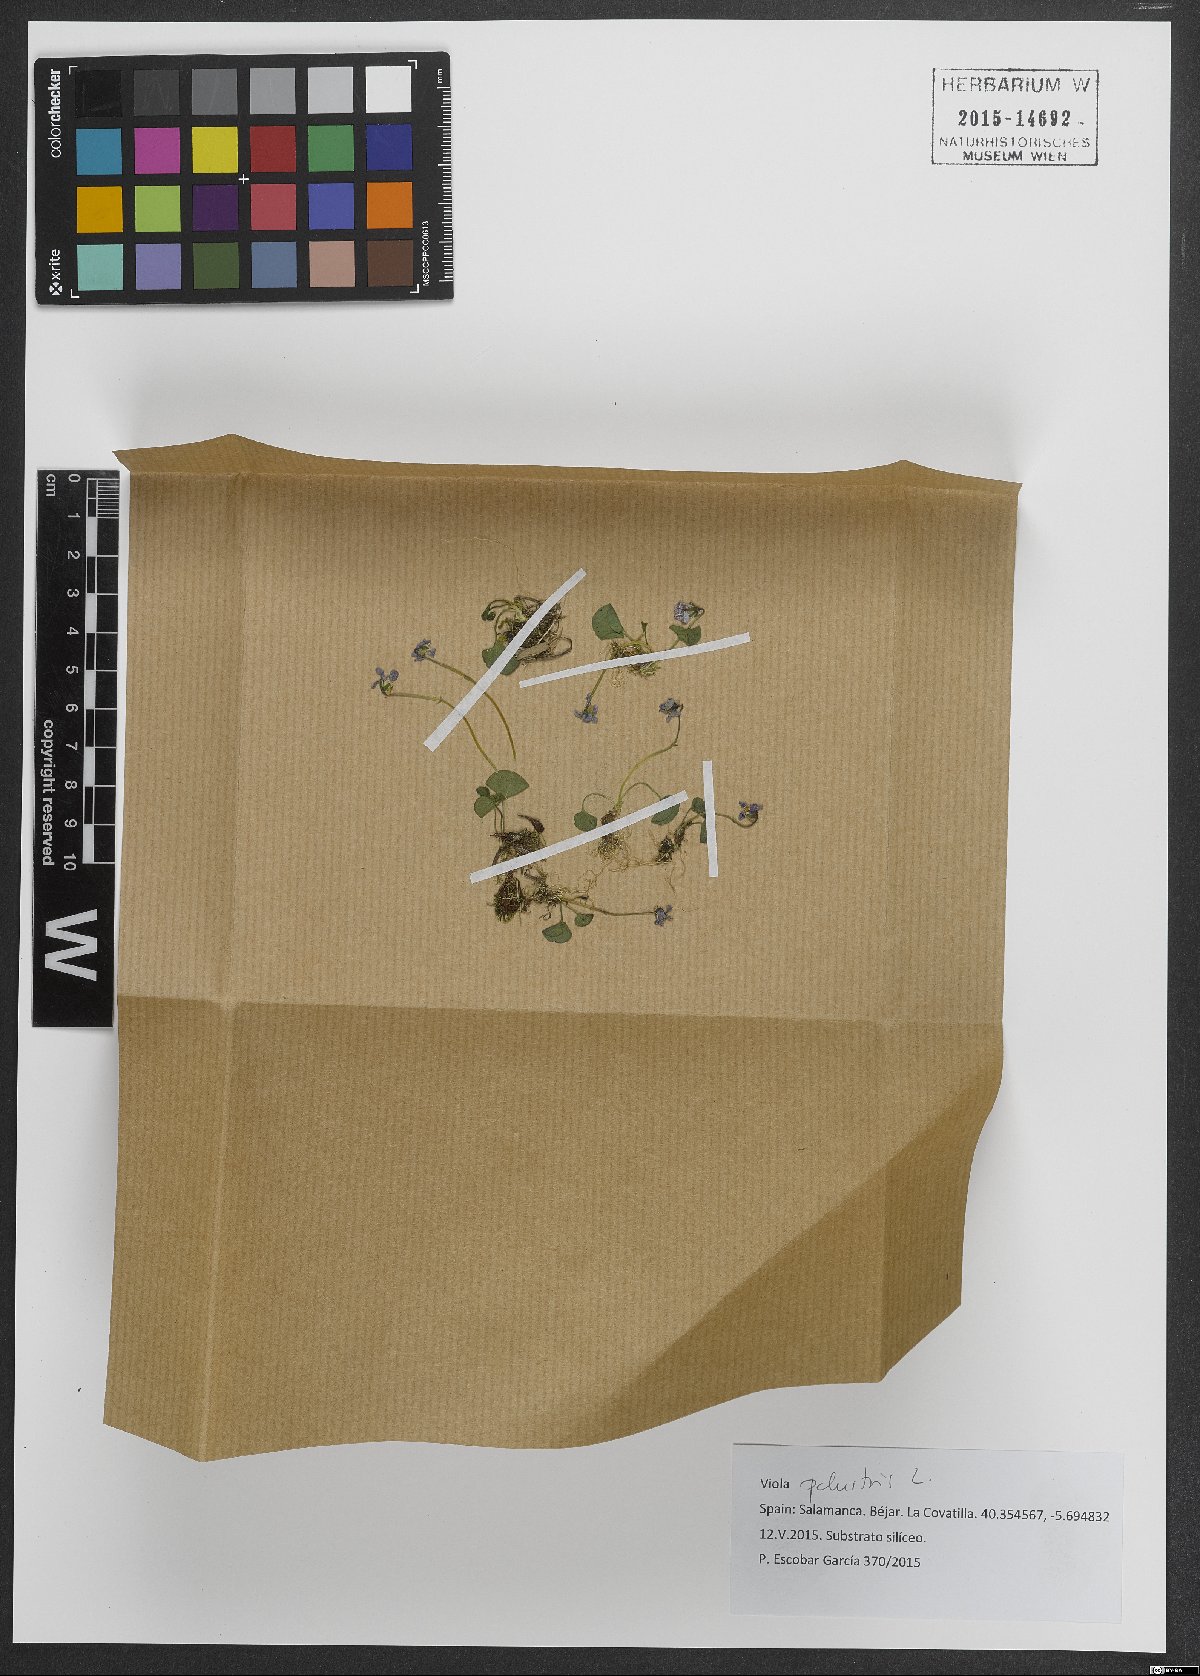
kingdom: Plantae
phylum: Tracheophyta
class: Magnoliopsida
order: Malpighiales
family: Violaceae
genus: Viola
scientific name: Viola palustris
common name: Marsh violet
